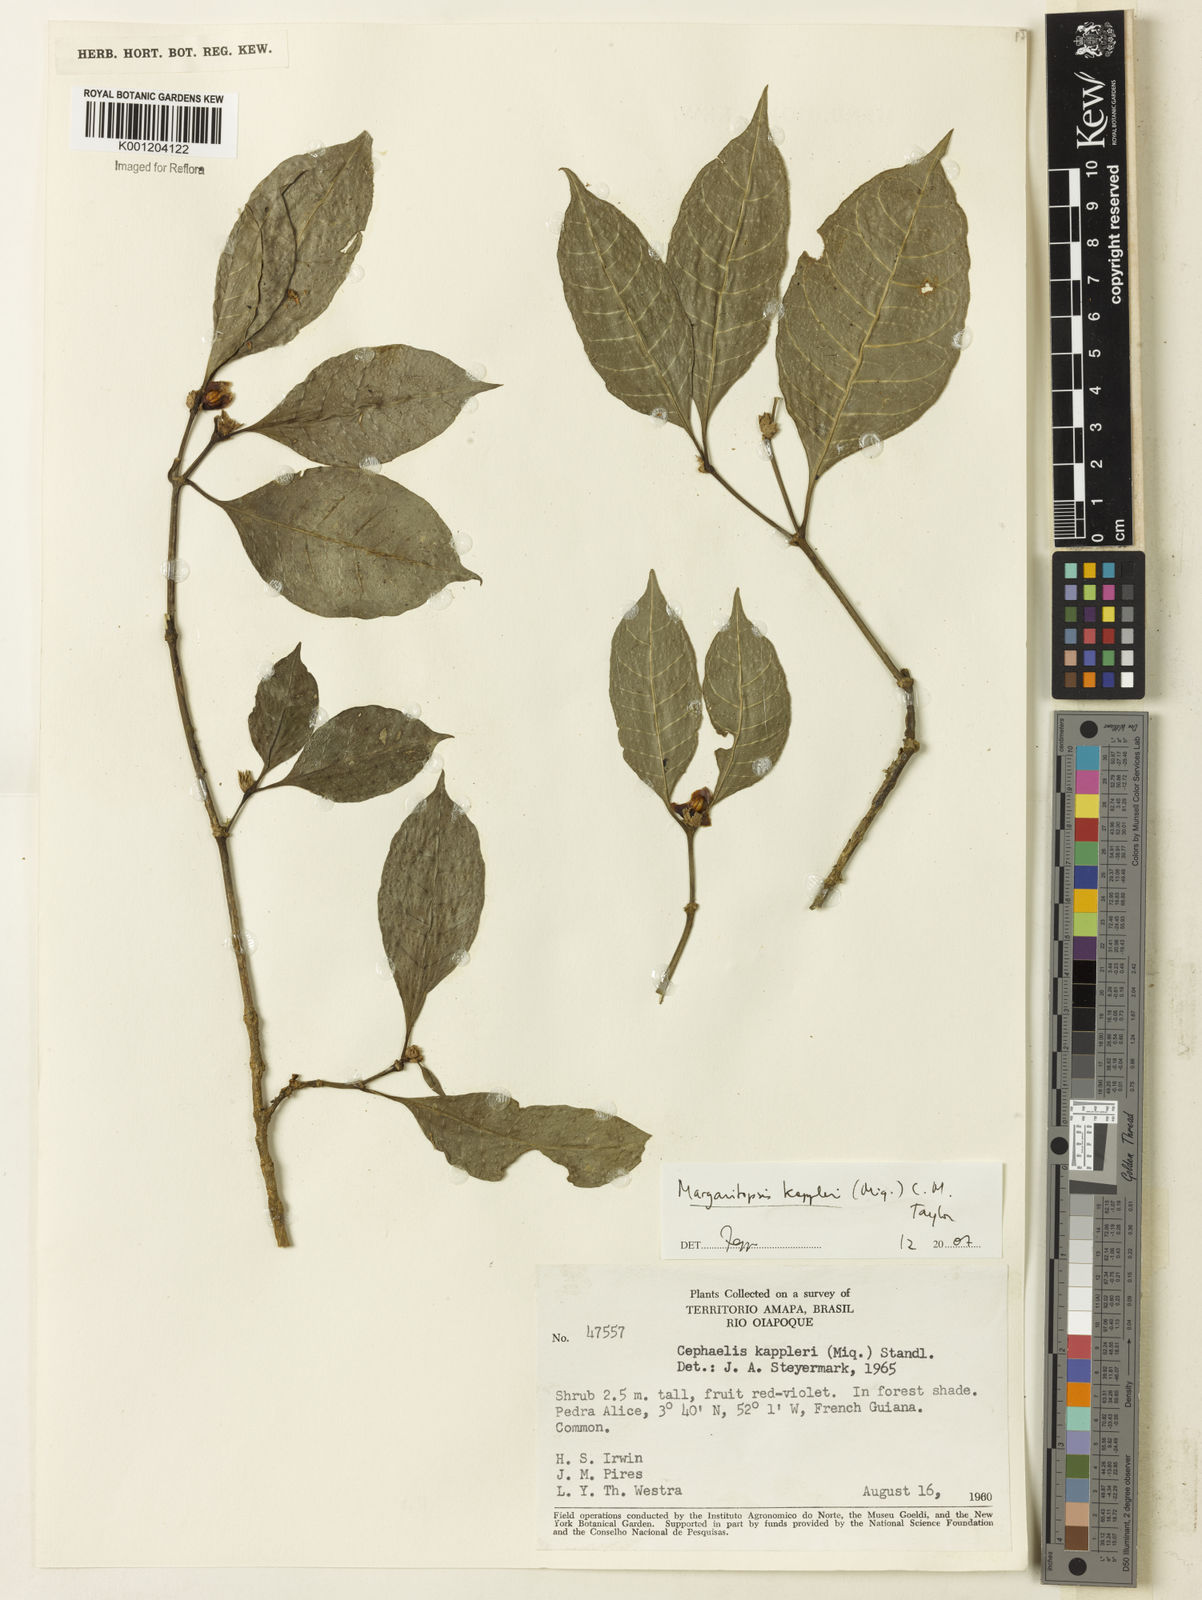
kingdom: Plantae
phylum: Tracheophyta
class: Magnoliopsida
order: Gentianales
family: Rubiaceae
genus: Eumachia
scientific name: Eumachia kappleri
